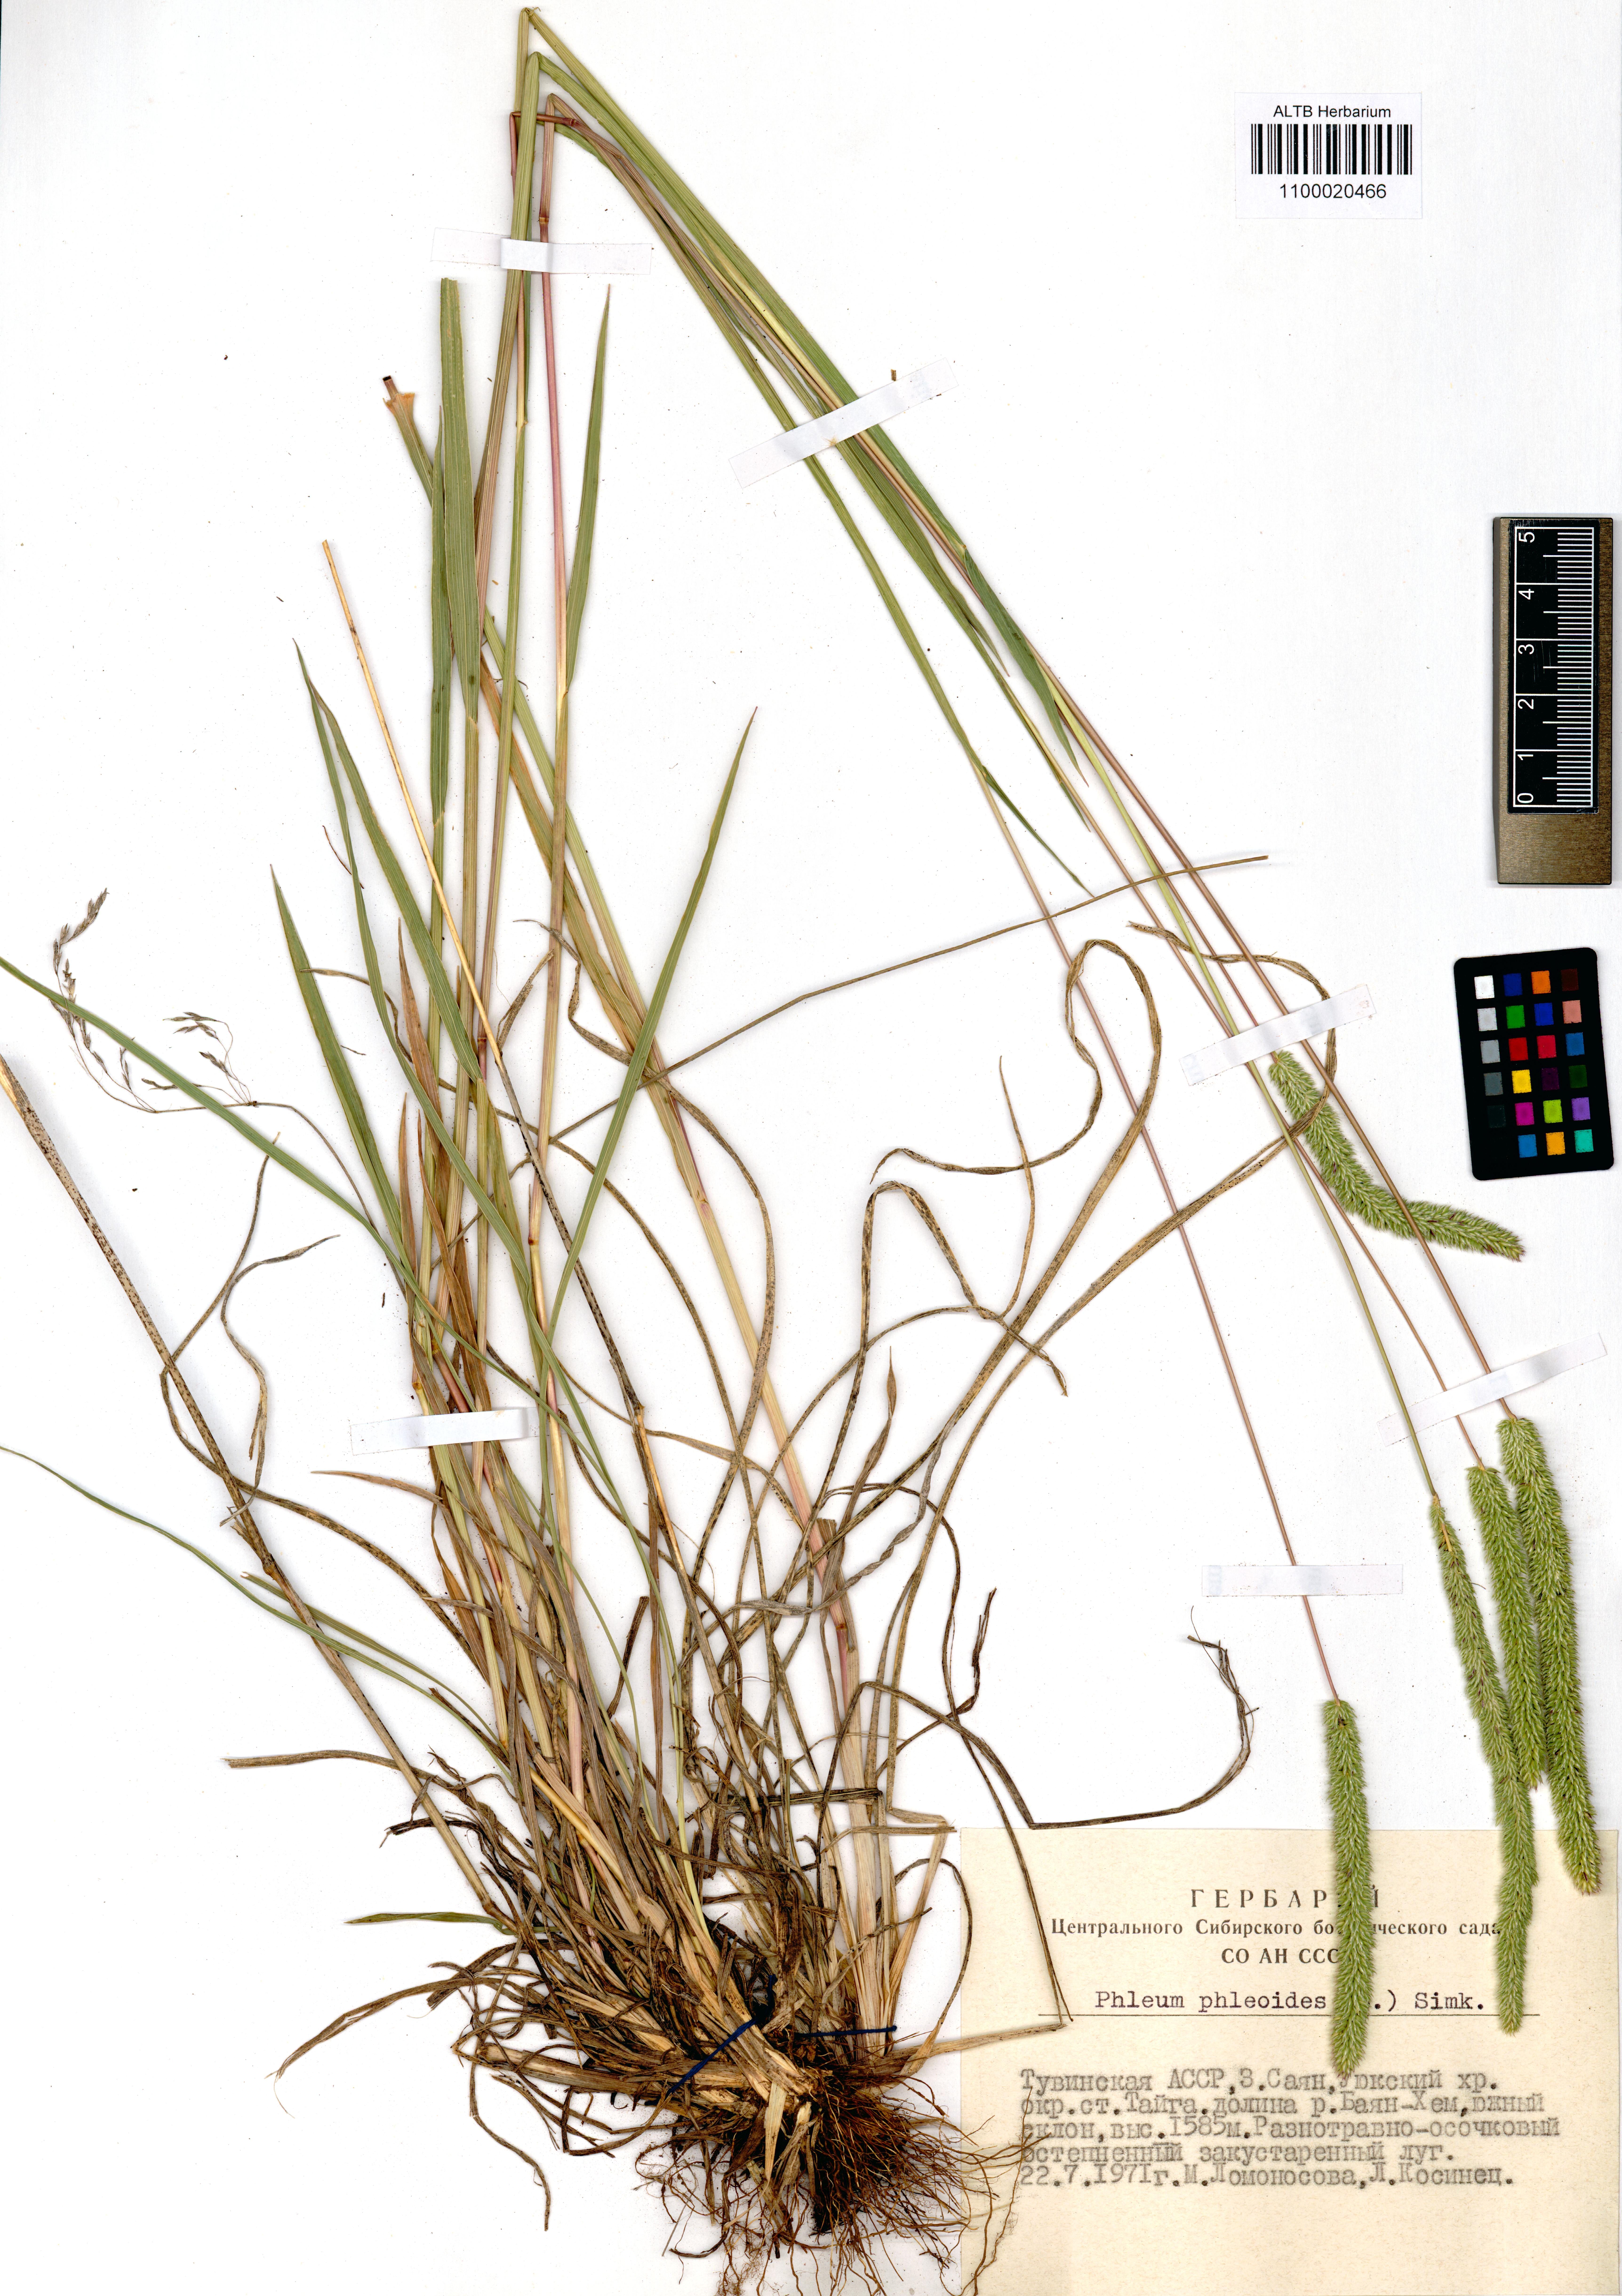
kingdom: Plantae
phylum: Tracheophyta
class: Liliopsida
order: Poales
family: Poaceae
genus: Phleum
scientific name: Phleum phleoides
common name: Purple-stem cat's-tail
